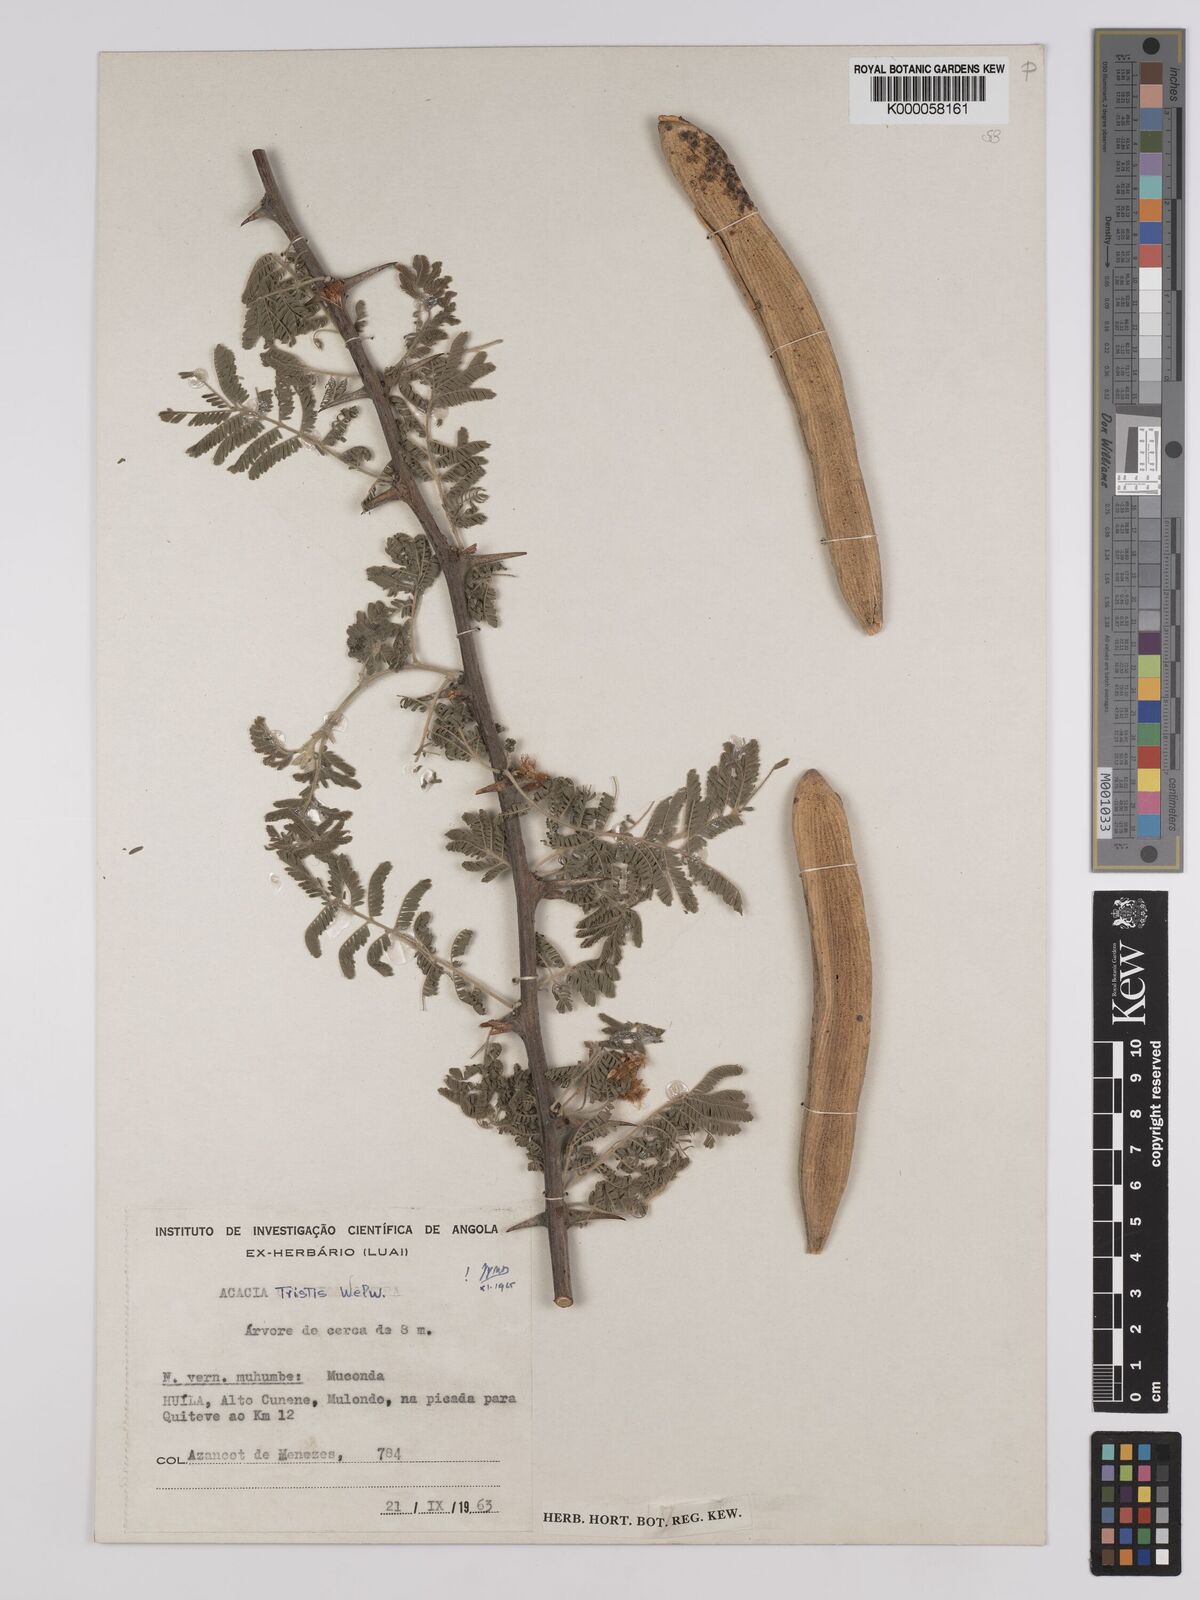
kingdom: Plantae
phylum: Tracheophyta
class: Magnoliopsida
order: Fabales
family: Fabaceae
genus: Vachellia
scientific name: Vachellia hebeclada
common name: Candle thorn
